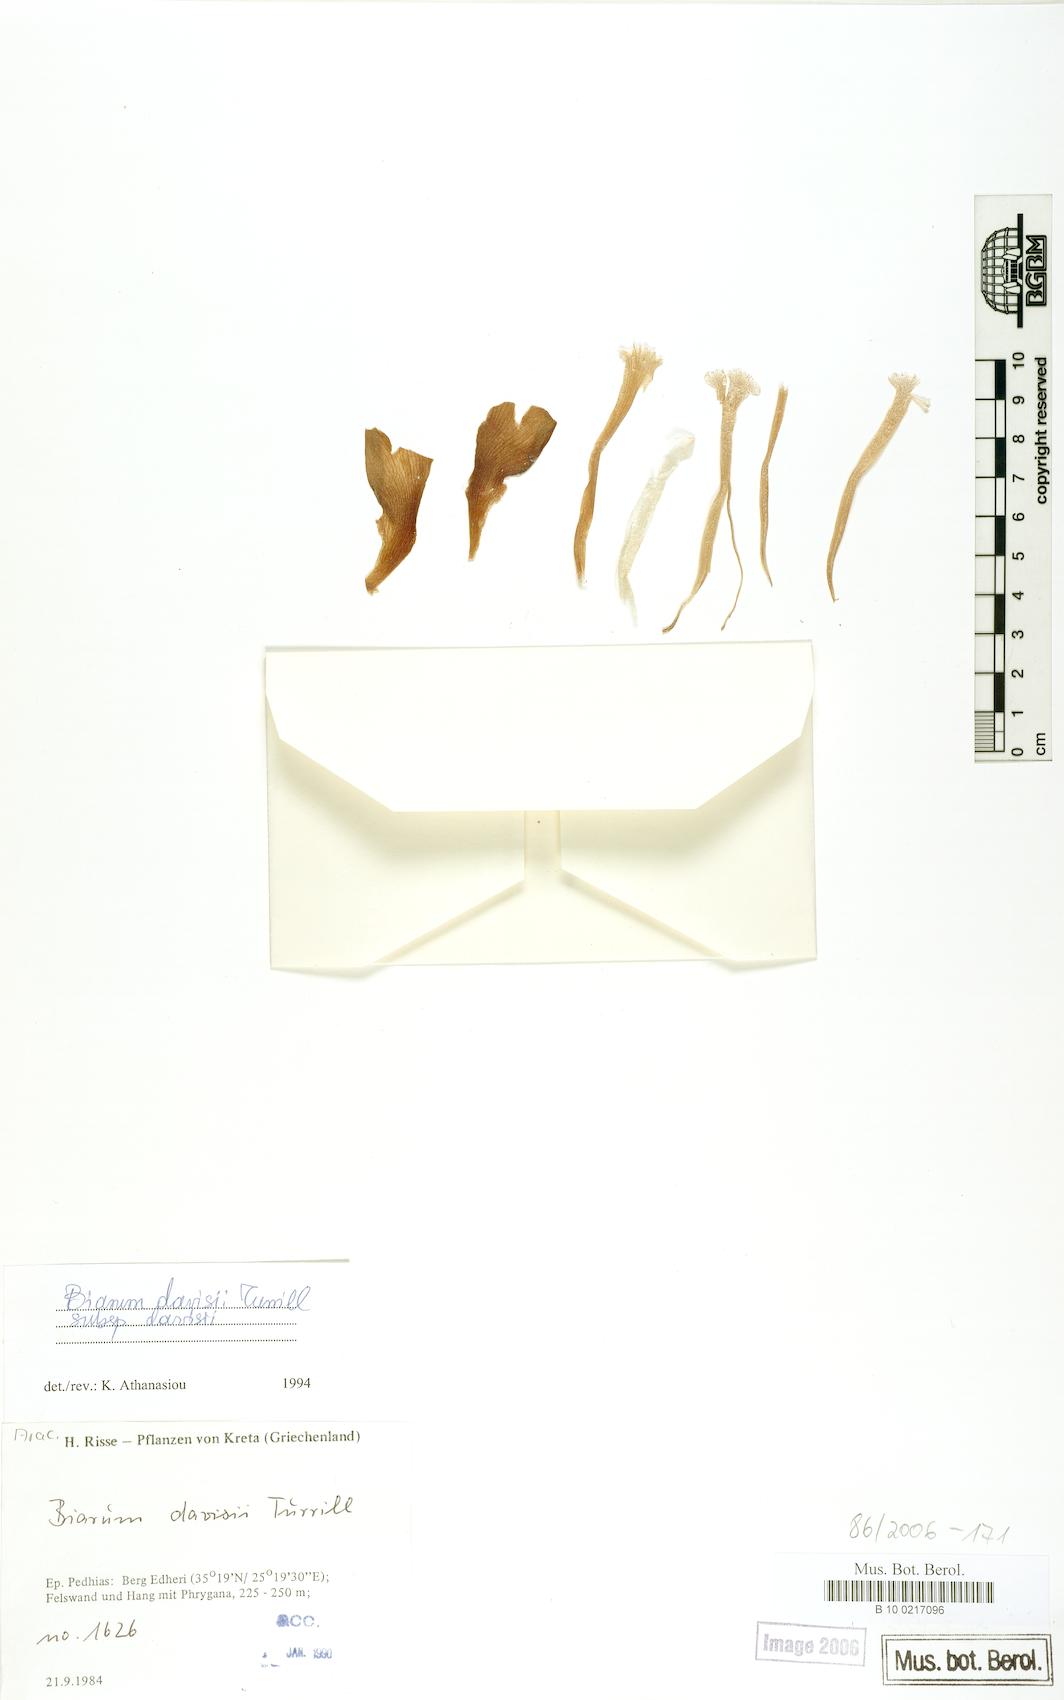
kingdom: Plantae
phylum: Tracheophyta
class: Liliopsida
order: Alismatales
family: Araceae
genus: Biarum
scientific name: Biarum davisii
